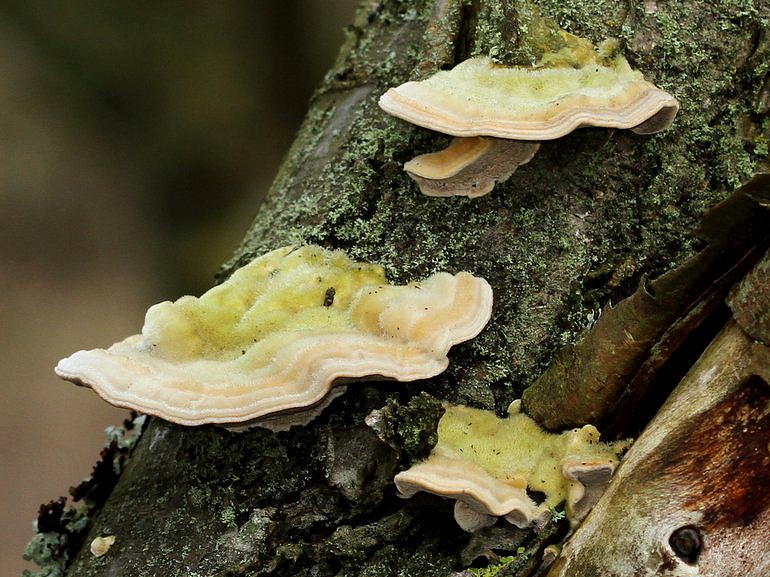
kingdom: Fungi
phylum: Basidiomycota
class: Agaricomycetes
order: Polyporales
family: Polyporaceae
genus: Trametes
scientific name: Trametes hirsuta
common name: håret læderporesvamp
